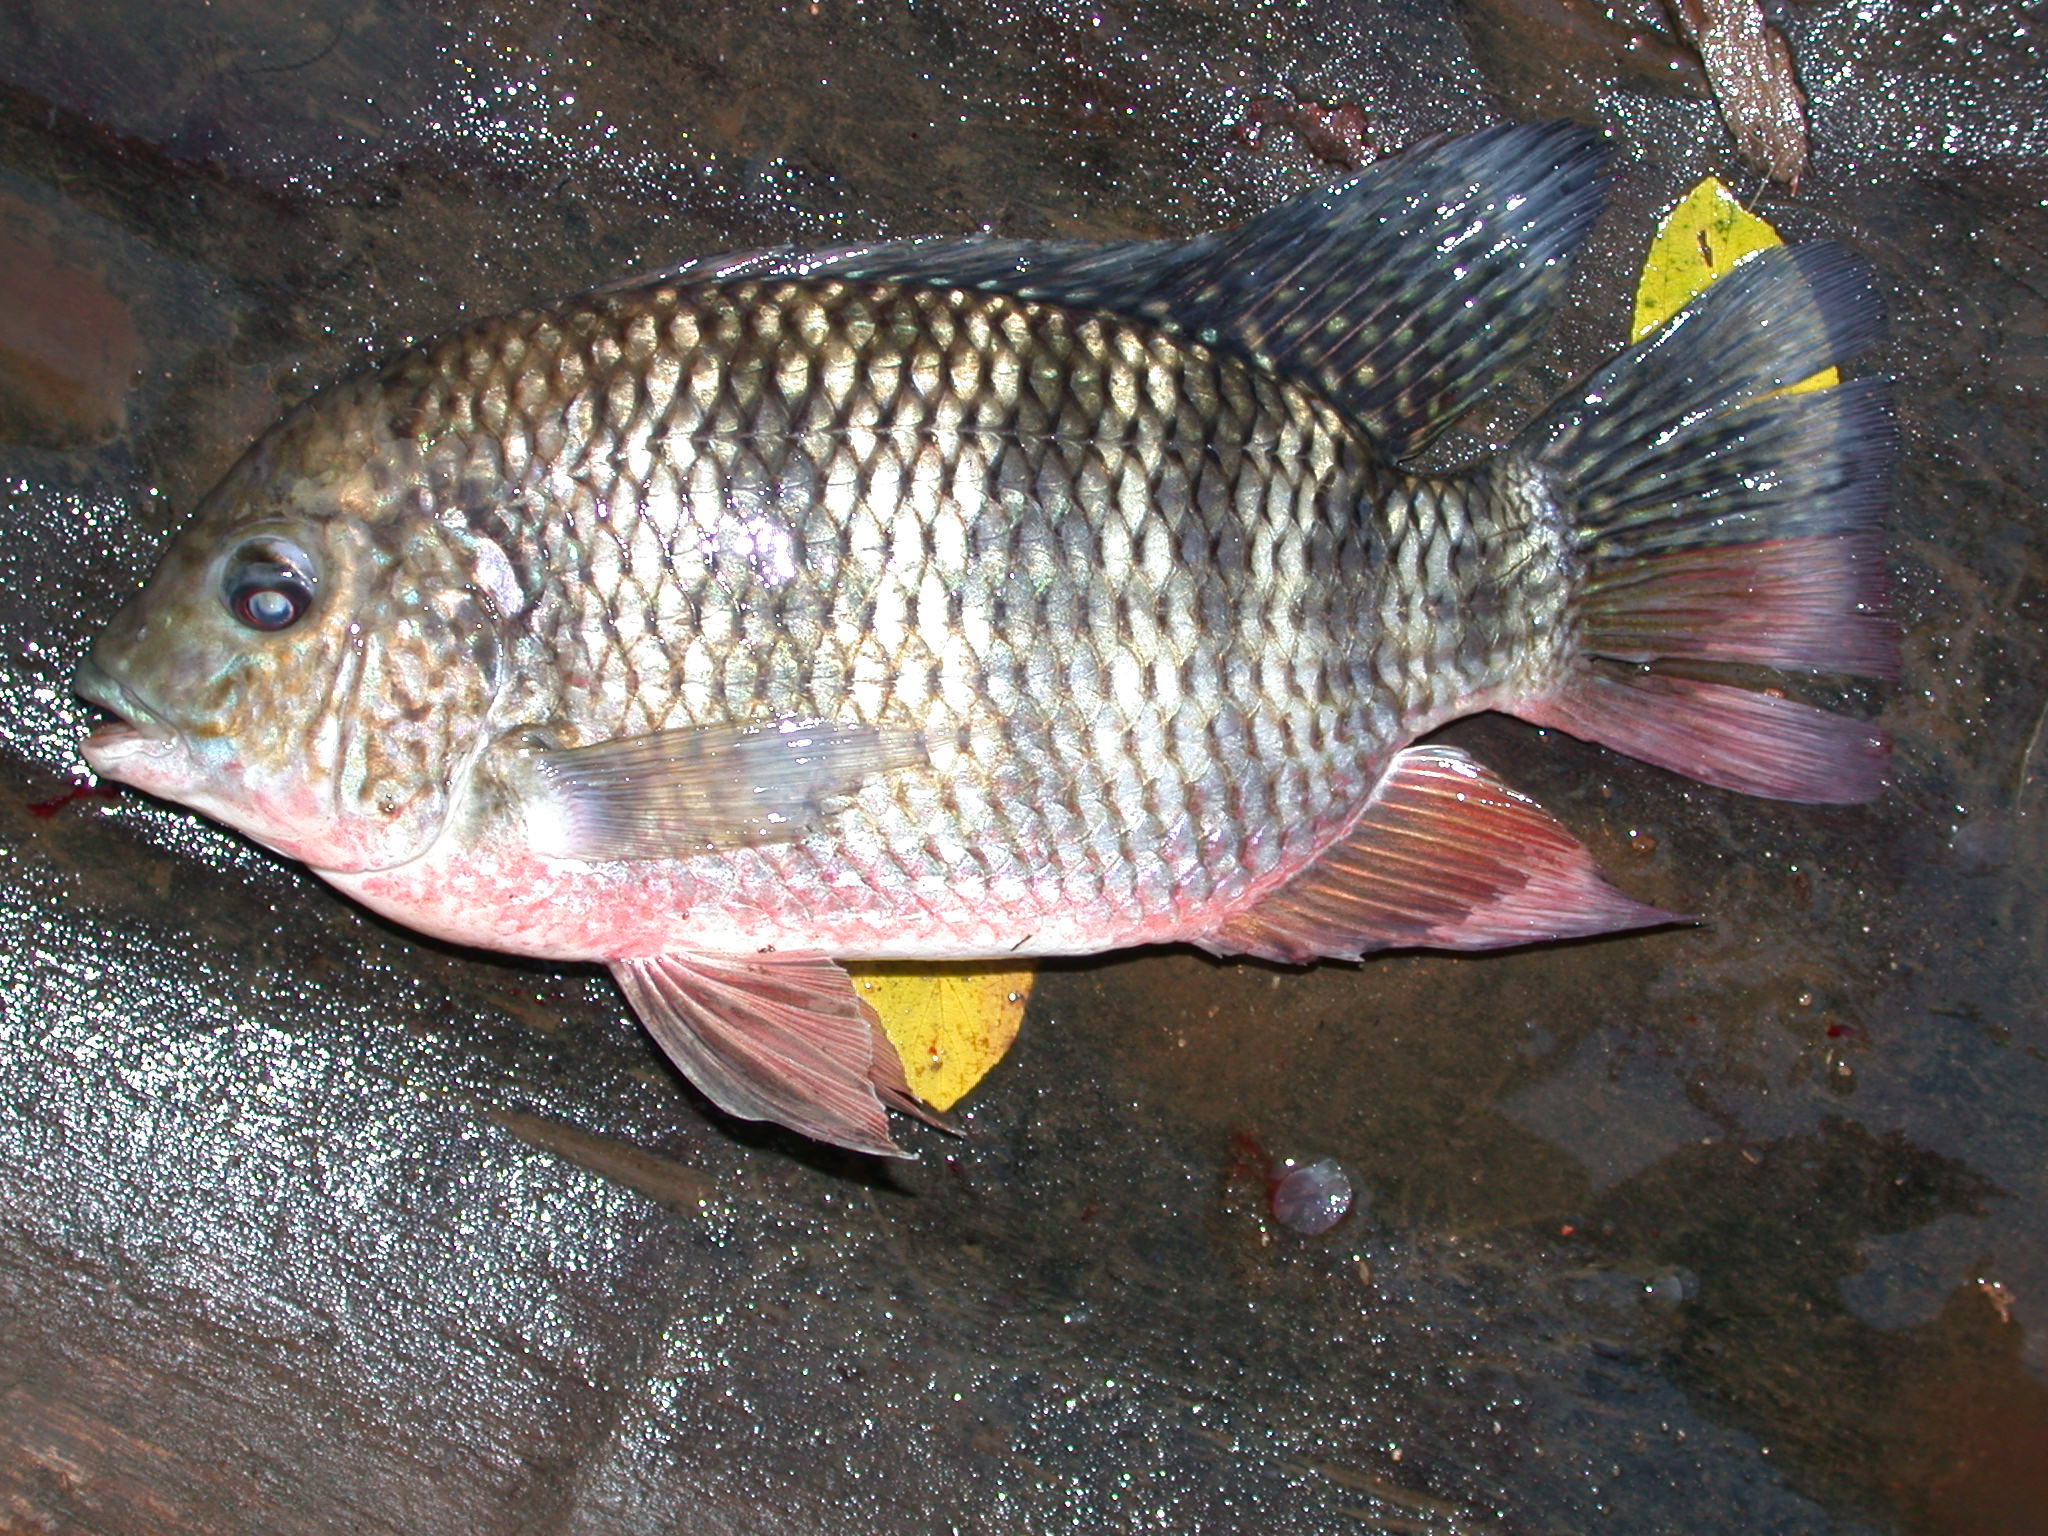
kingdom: Animalia
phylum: Chordata
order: Perciformes
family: Cichlidae
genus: Coptodon
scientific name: Coptodon rendalli
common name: Redbreast tilapia
